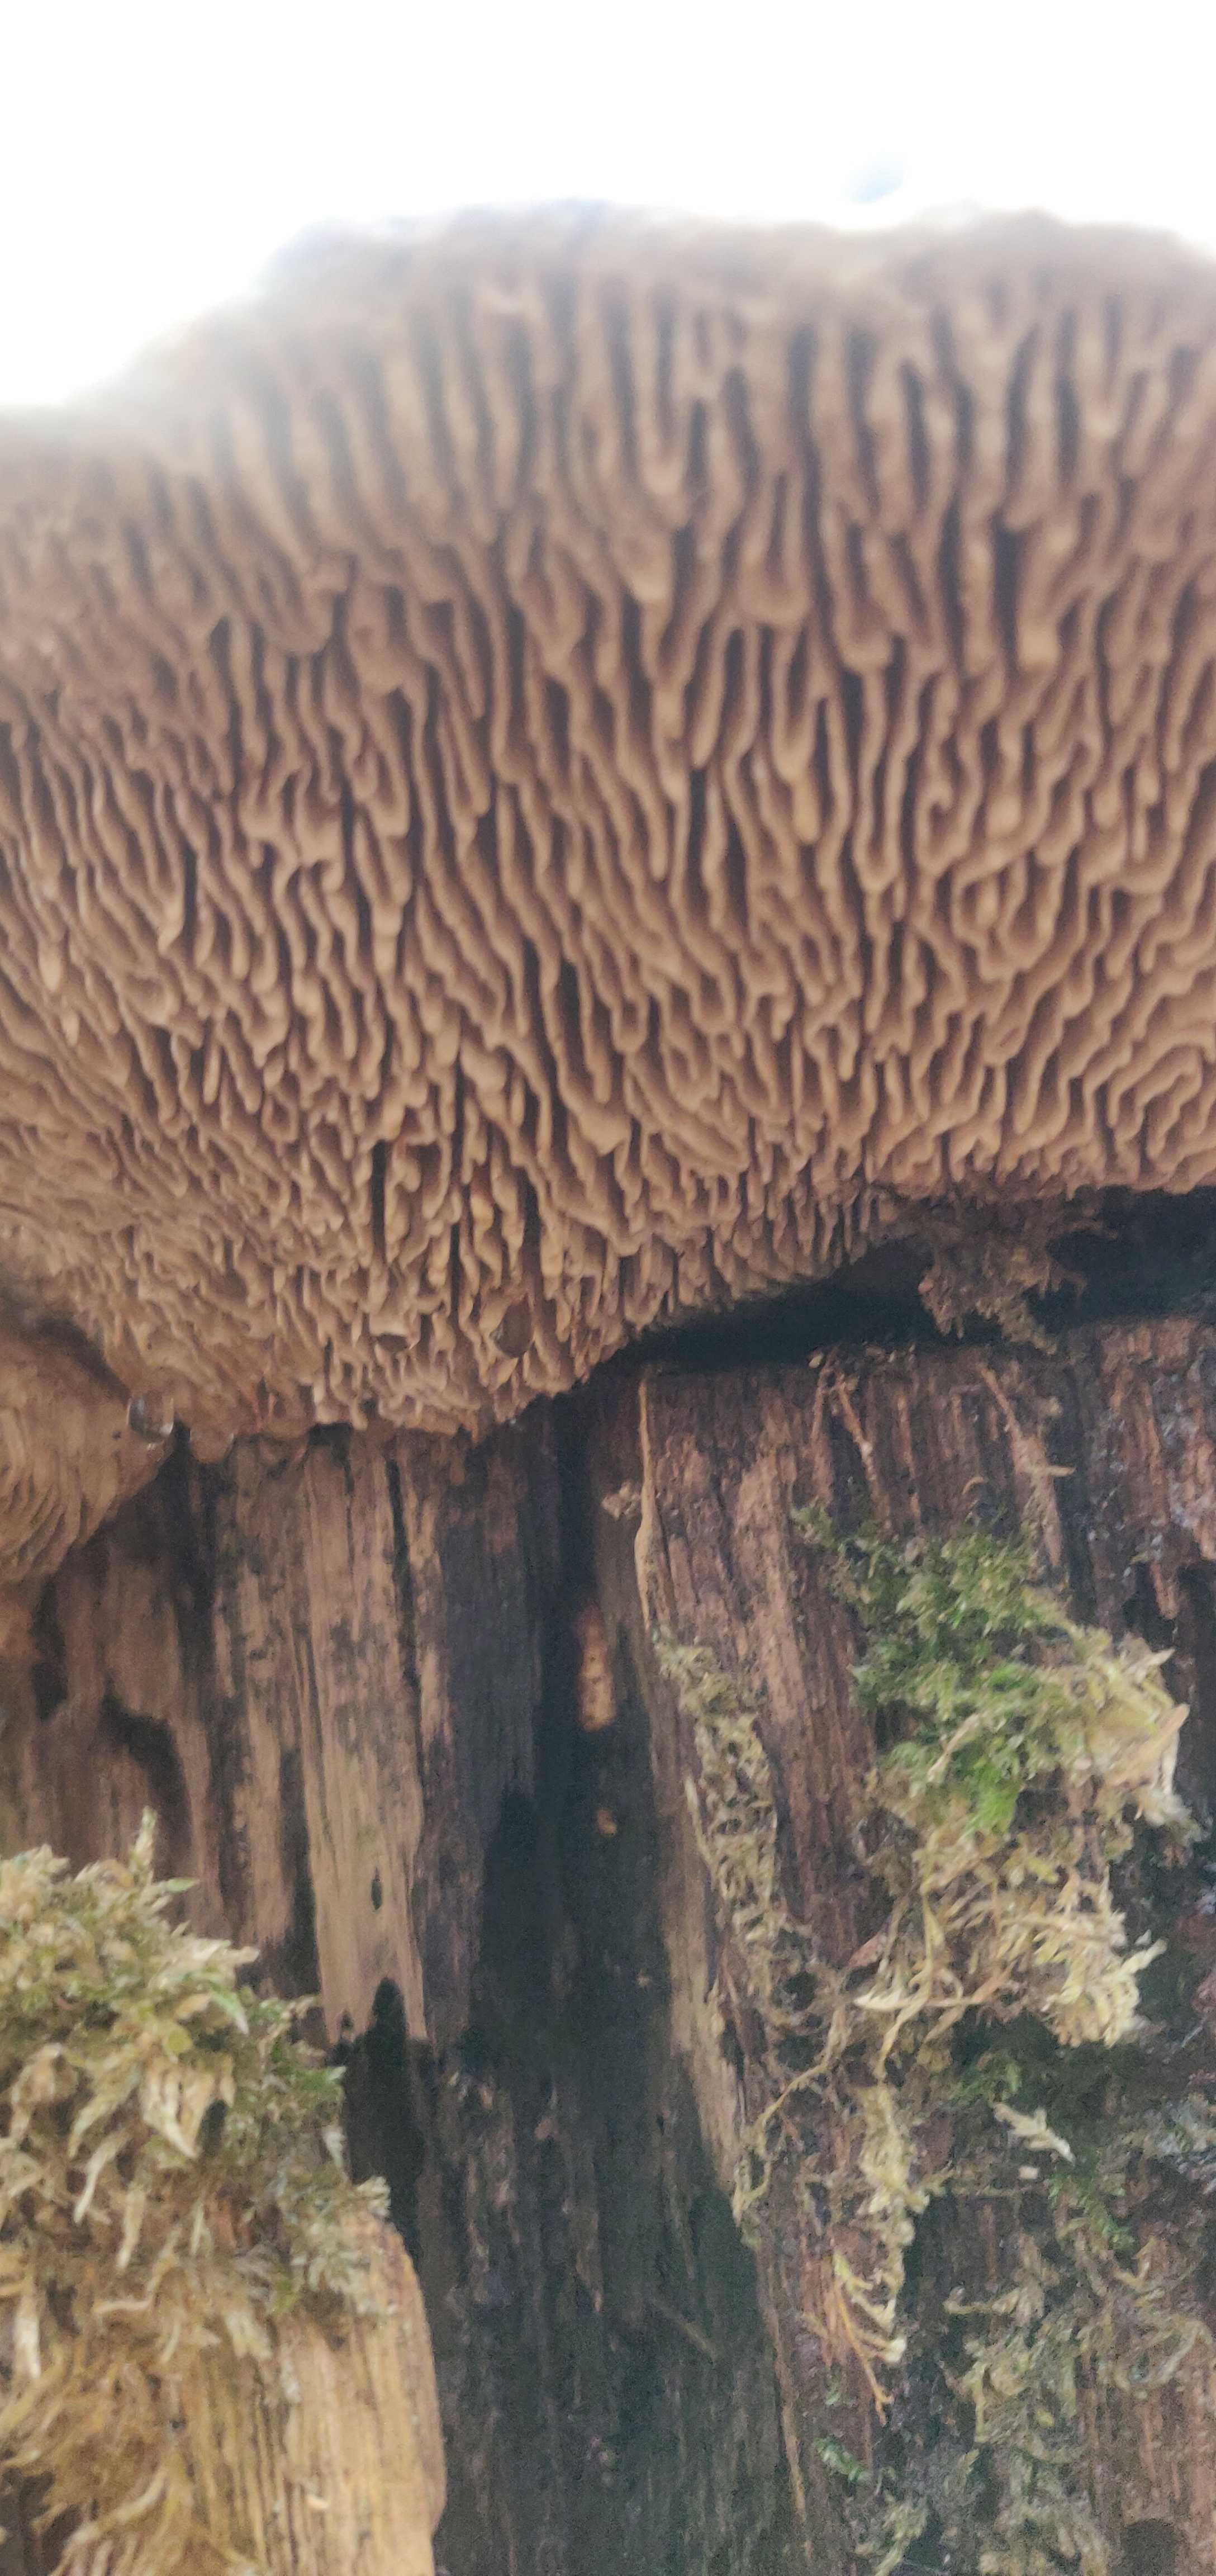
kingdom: Fungi
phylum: Basidiomycota
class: Agaricomycetes
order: Polyporales
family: Fomitopsidaceae
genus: Daedalea
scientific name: Daedalea quercina
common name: ege-labyrintsvamp
